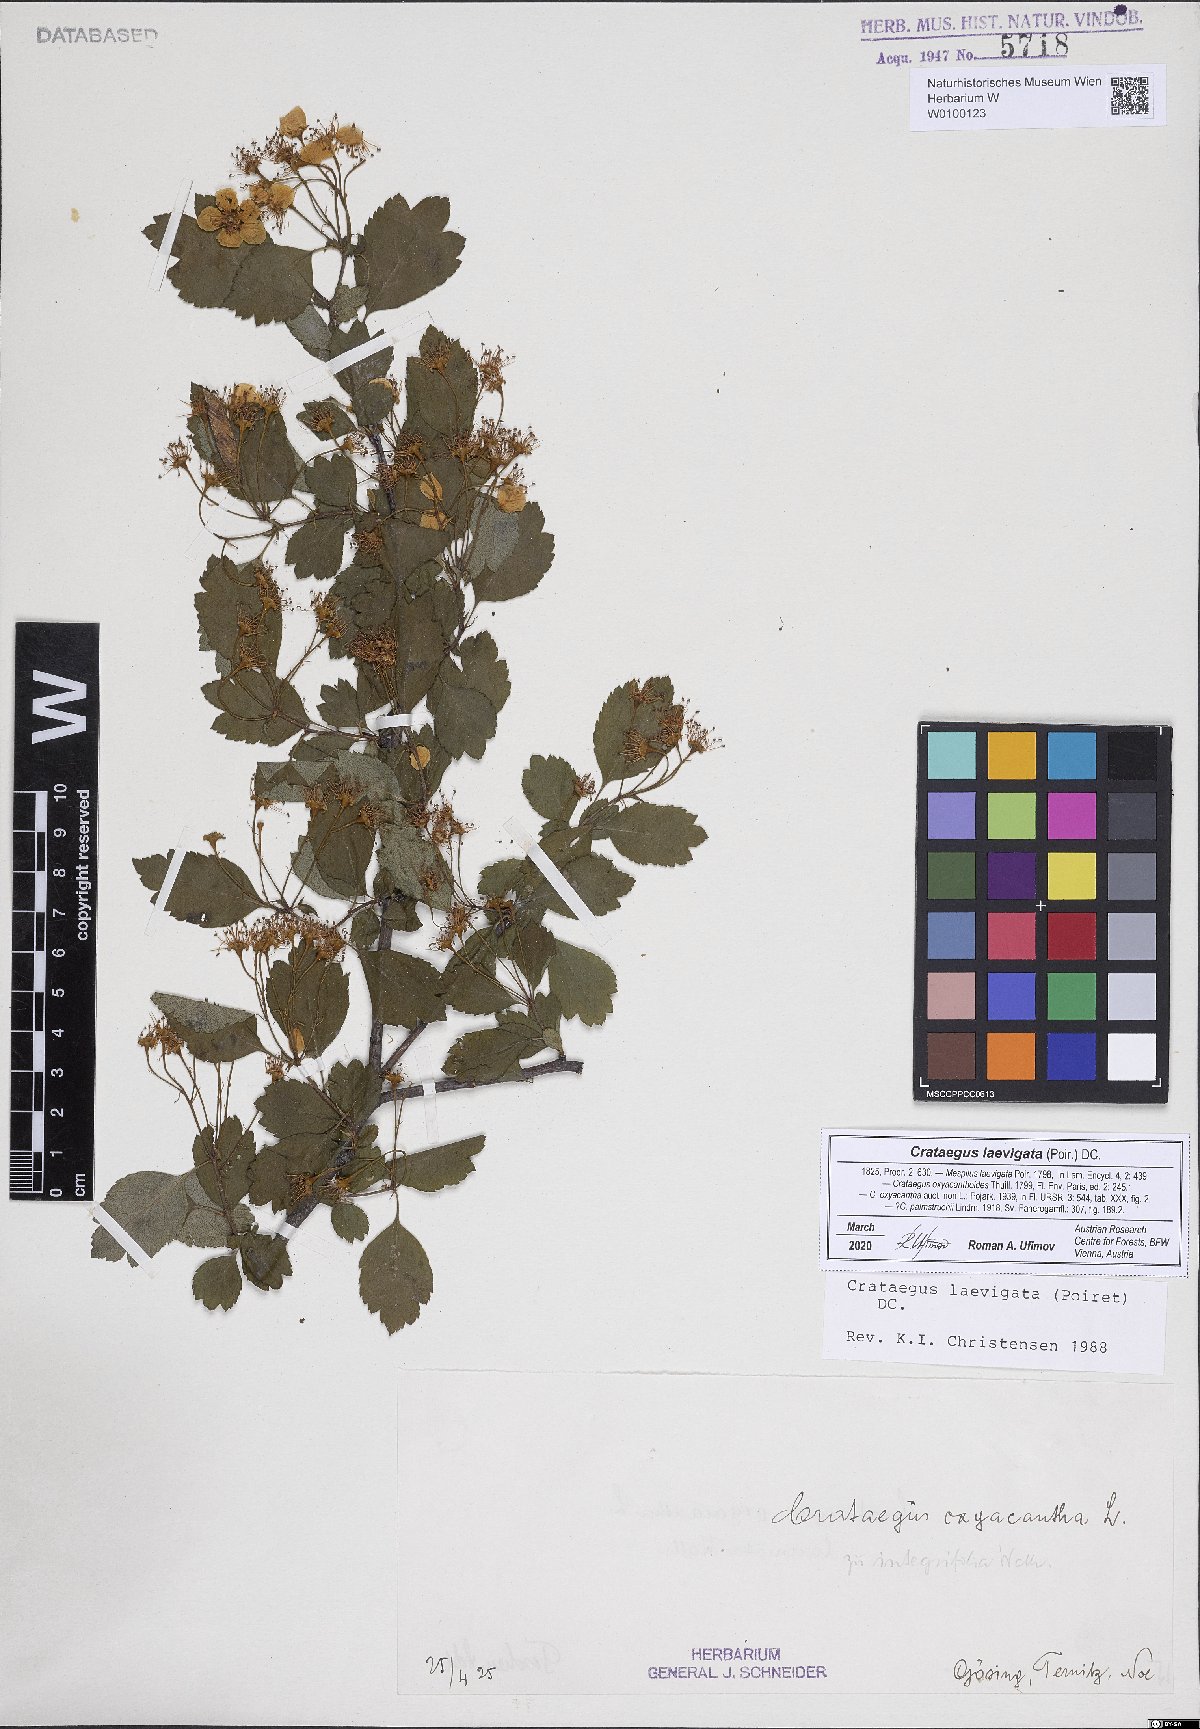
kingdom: Plantae
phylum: Tracheophyta
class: Magnoliopsida
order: Rosales
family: Rosaceae
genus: Crataegus
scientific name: Crataegus laevigata
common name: Midland hawthorn
